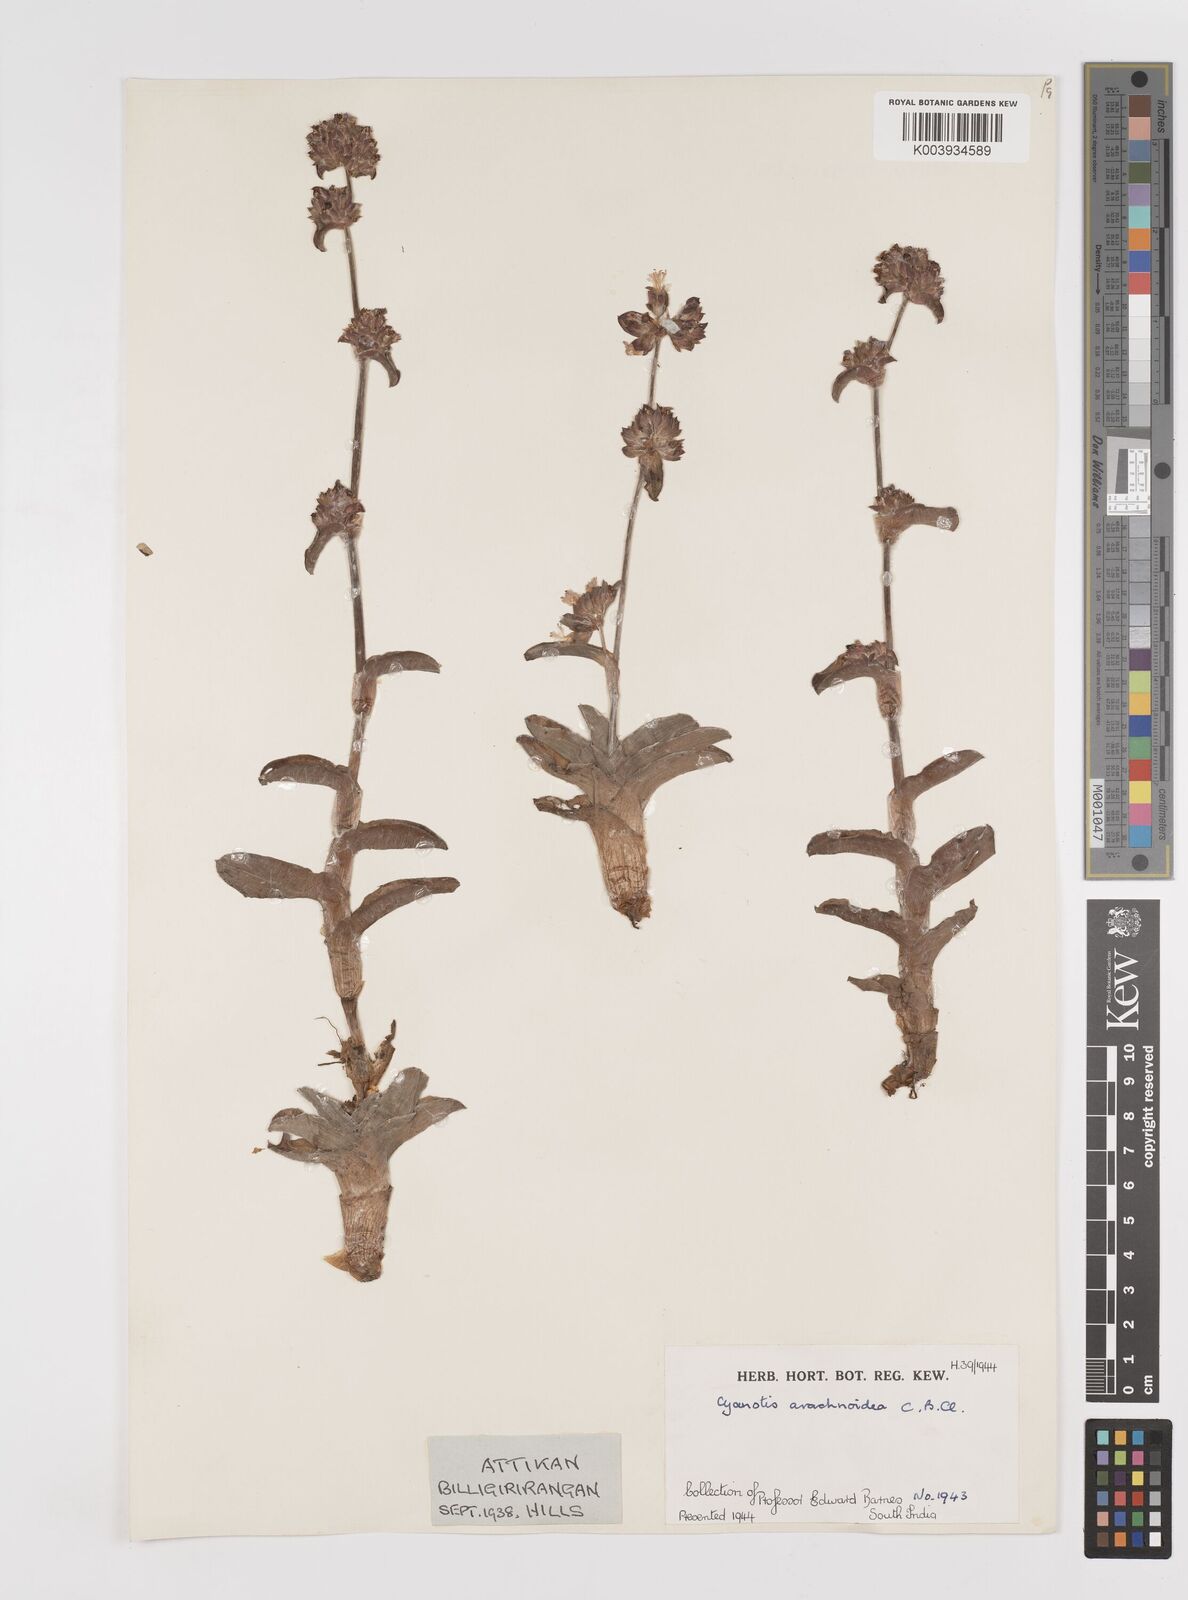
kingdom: Plantae
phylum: Tracheophyta
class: Liliopsida
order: Commelinales
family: Commelinaceae
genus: Cyanotis
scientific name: Cyanotis arachnoidea
